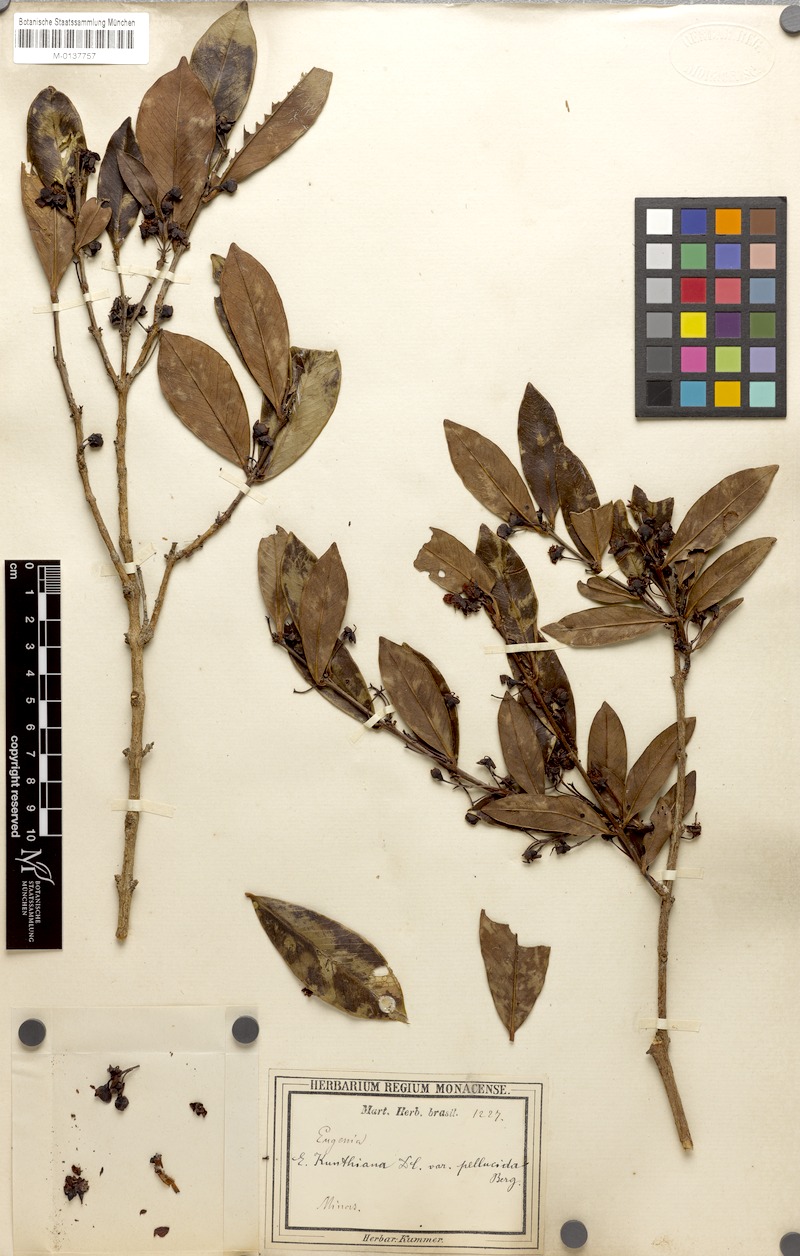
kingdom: Plantae
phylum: Tracheophyta
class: Magnoliopsida
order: Myrtales
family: Myrtaceae
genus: Eugenia
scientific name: Eugenia punicifolia
